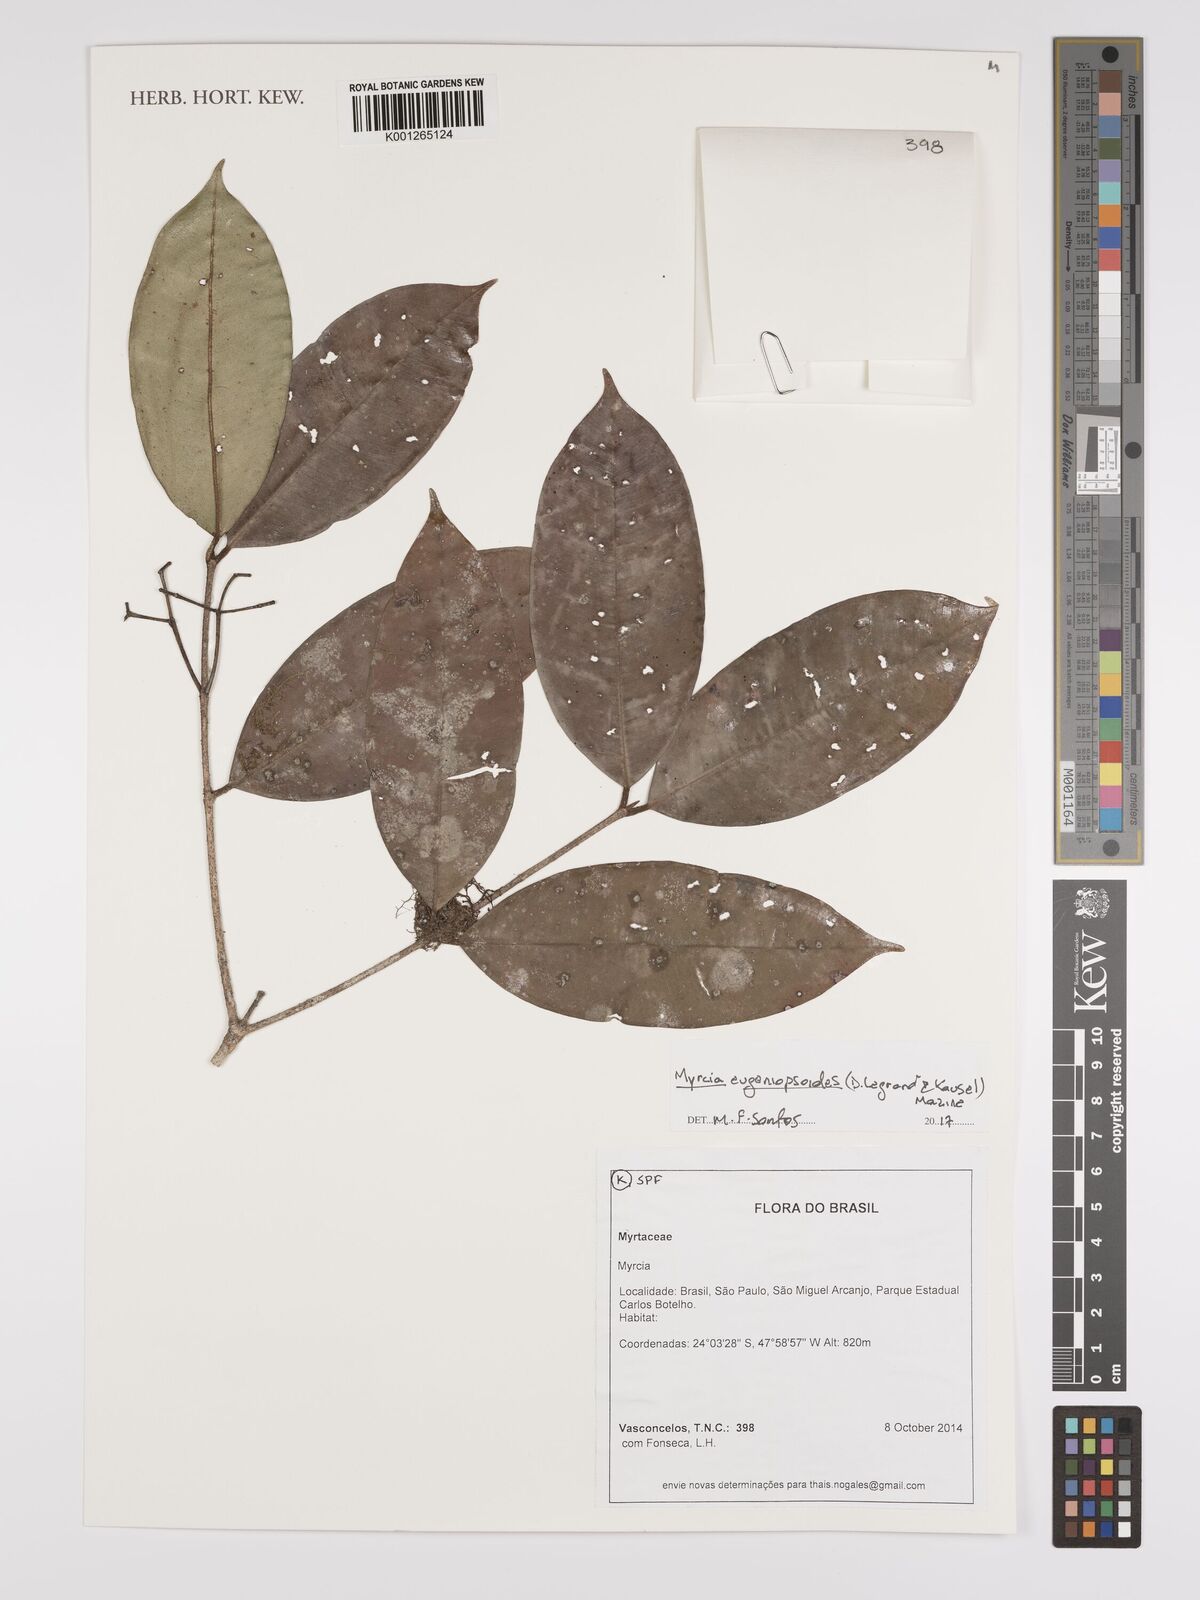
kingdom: Plantae
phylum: Tracheophyta
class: Magnoliopsida
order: Myrtales
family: Myrtaceae
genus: Myrcia
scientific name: Myrcia eugeniopsoides
